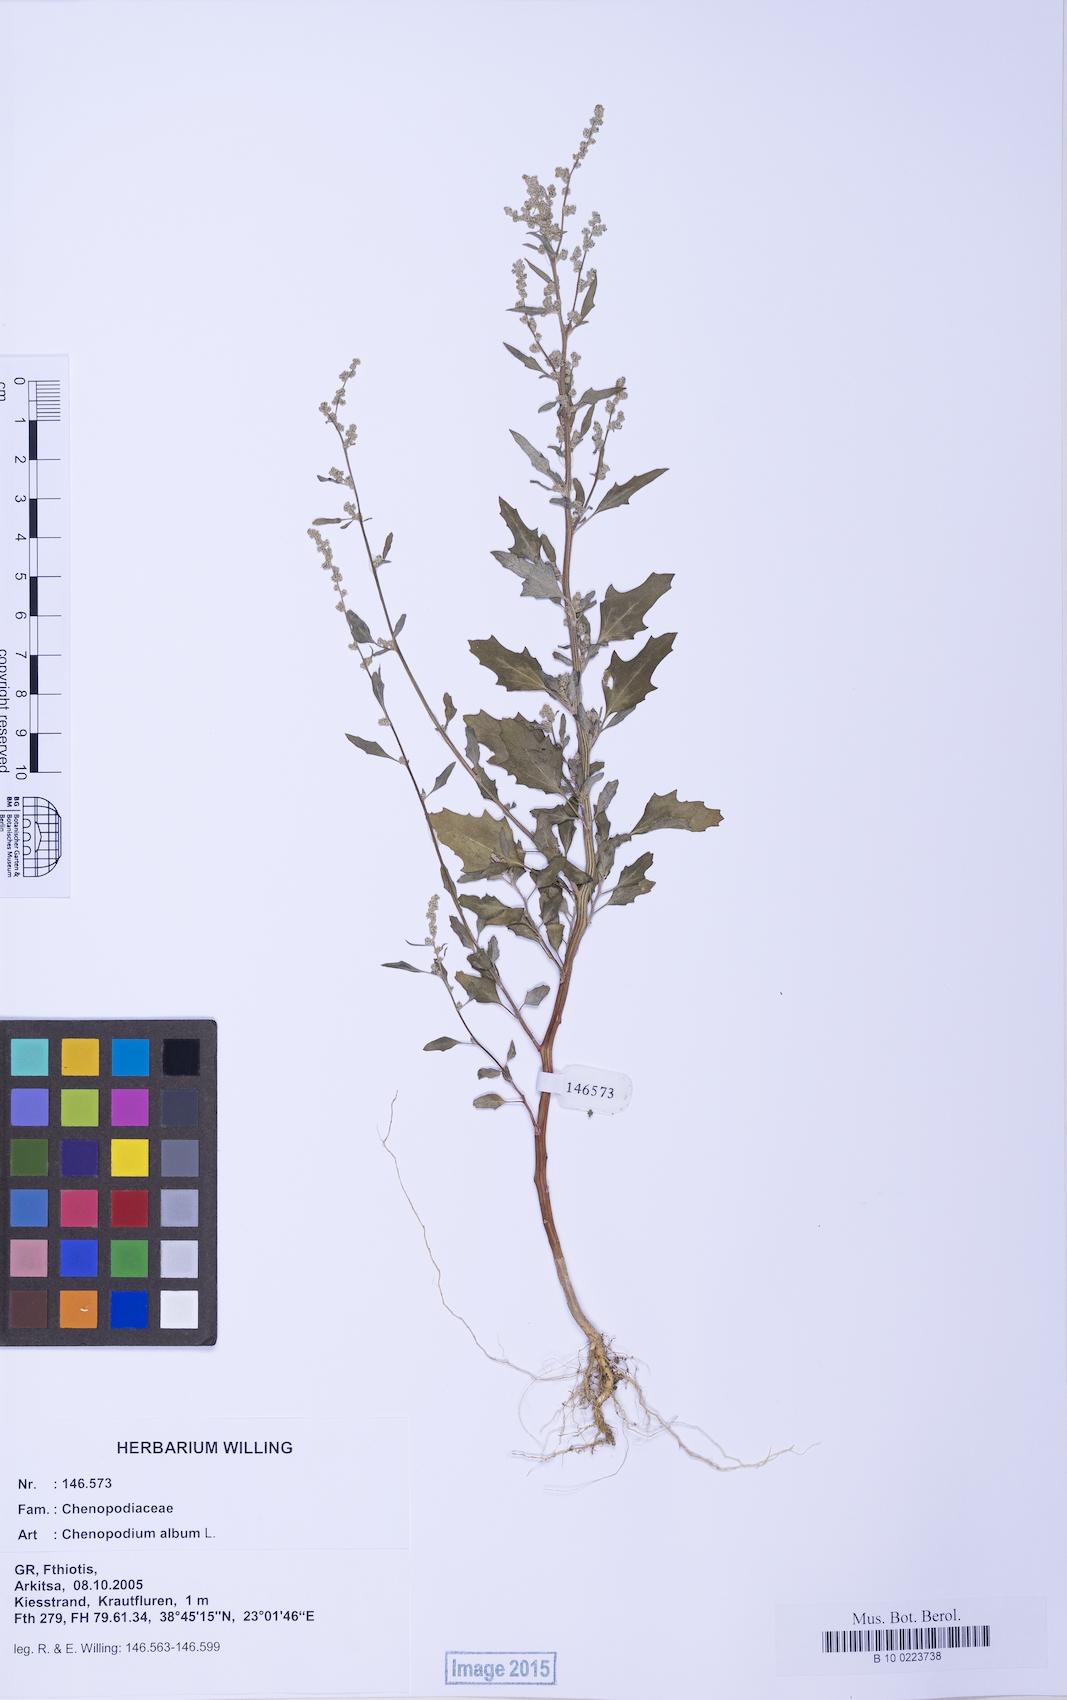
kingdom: Plantae
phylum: Tracheophyta
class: Magnoliopsida
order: Caryophyllales
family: Amaranthaceae
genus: Chenopodium
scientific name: Chenopodium album
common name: Fat-hen
